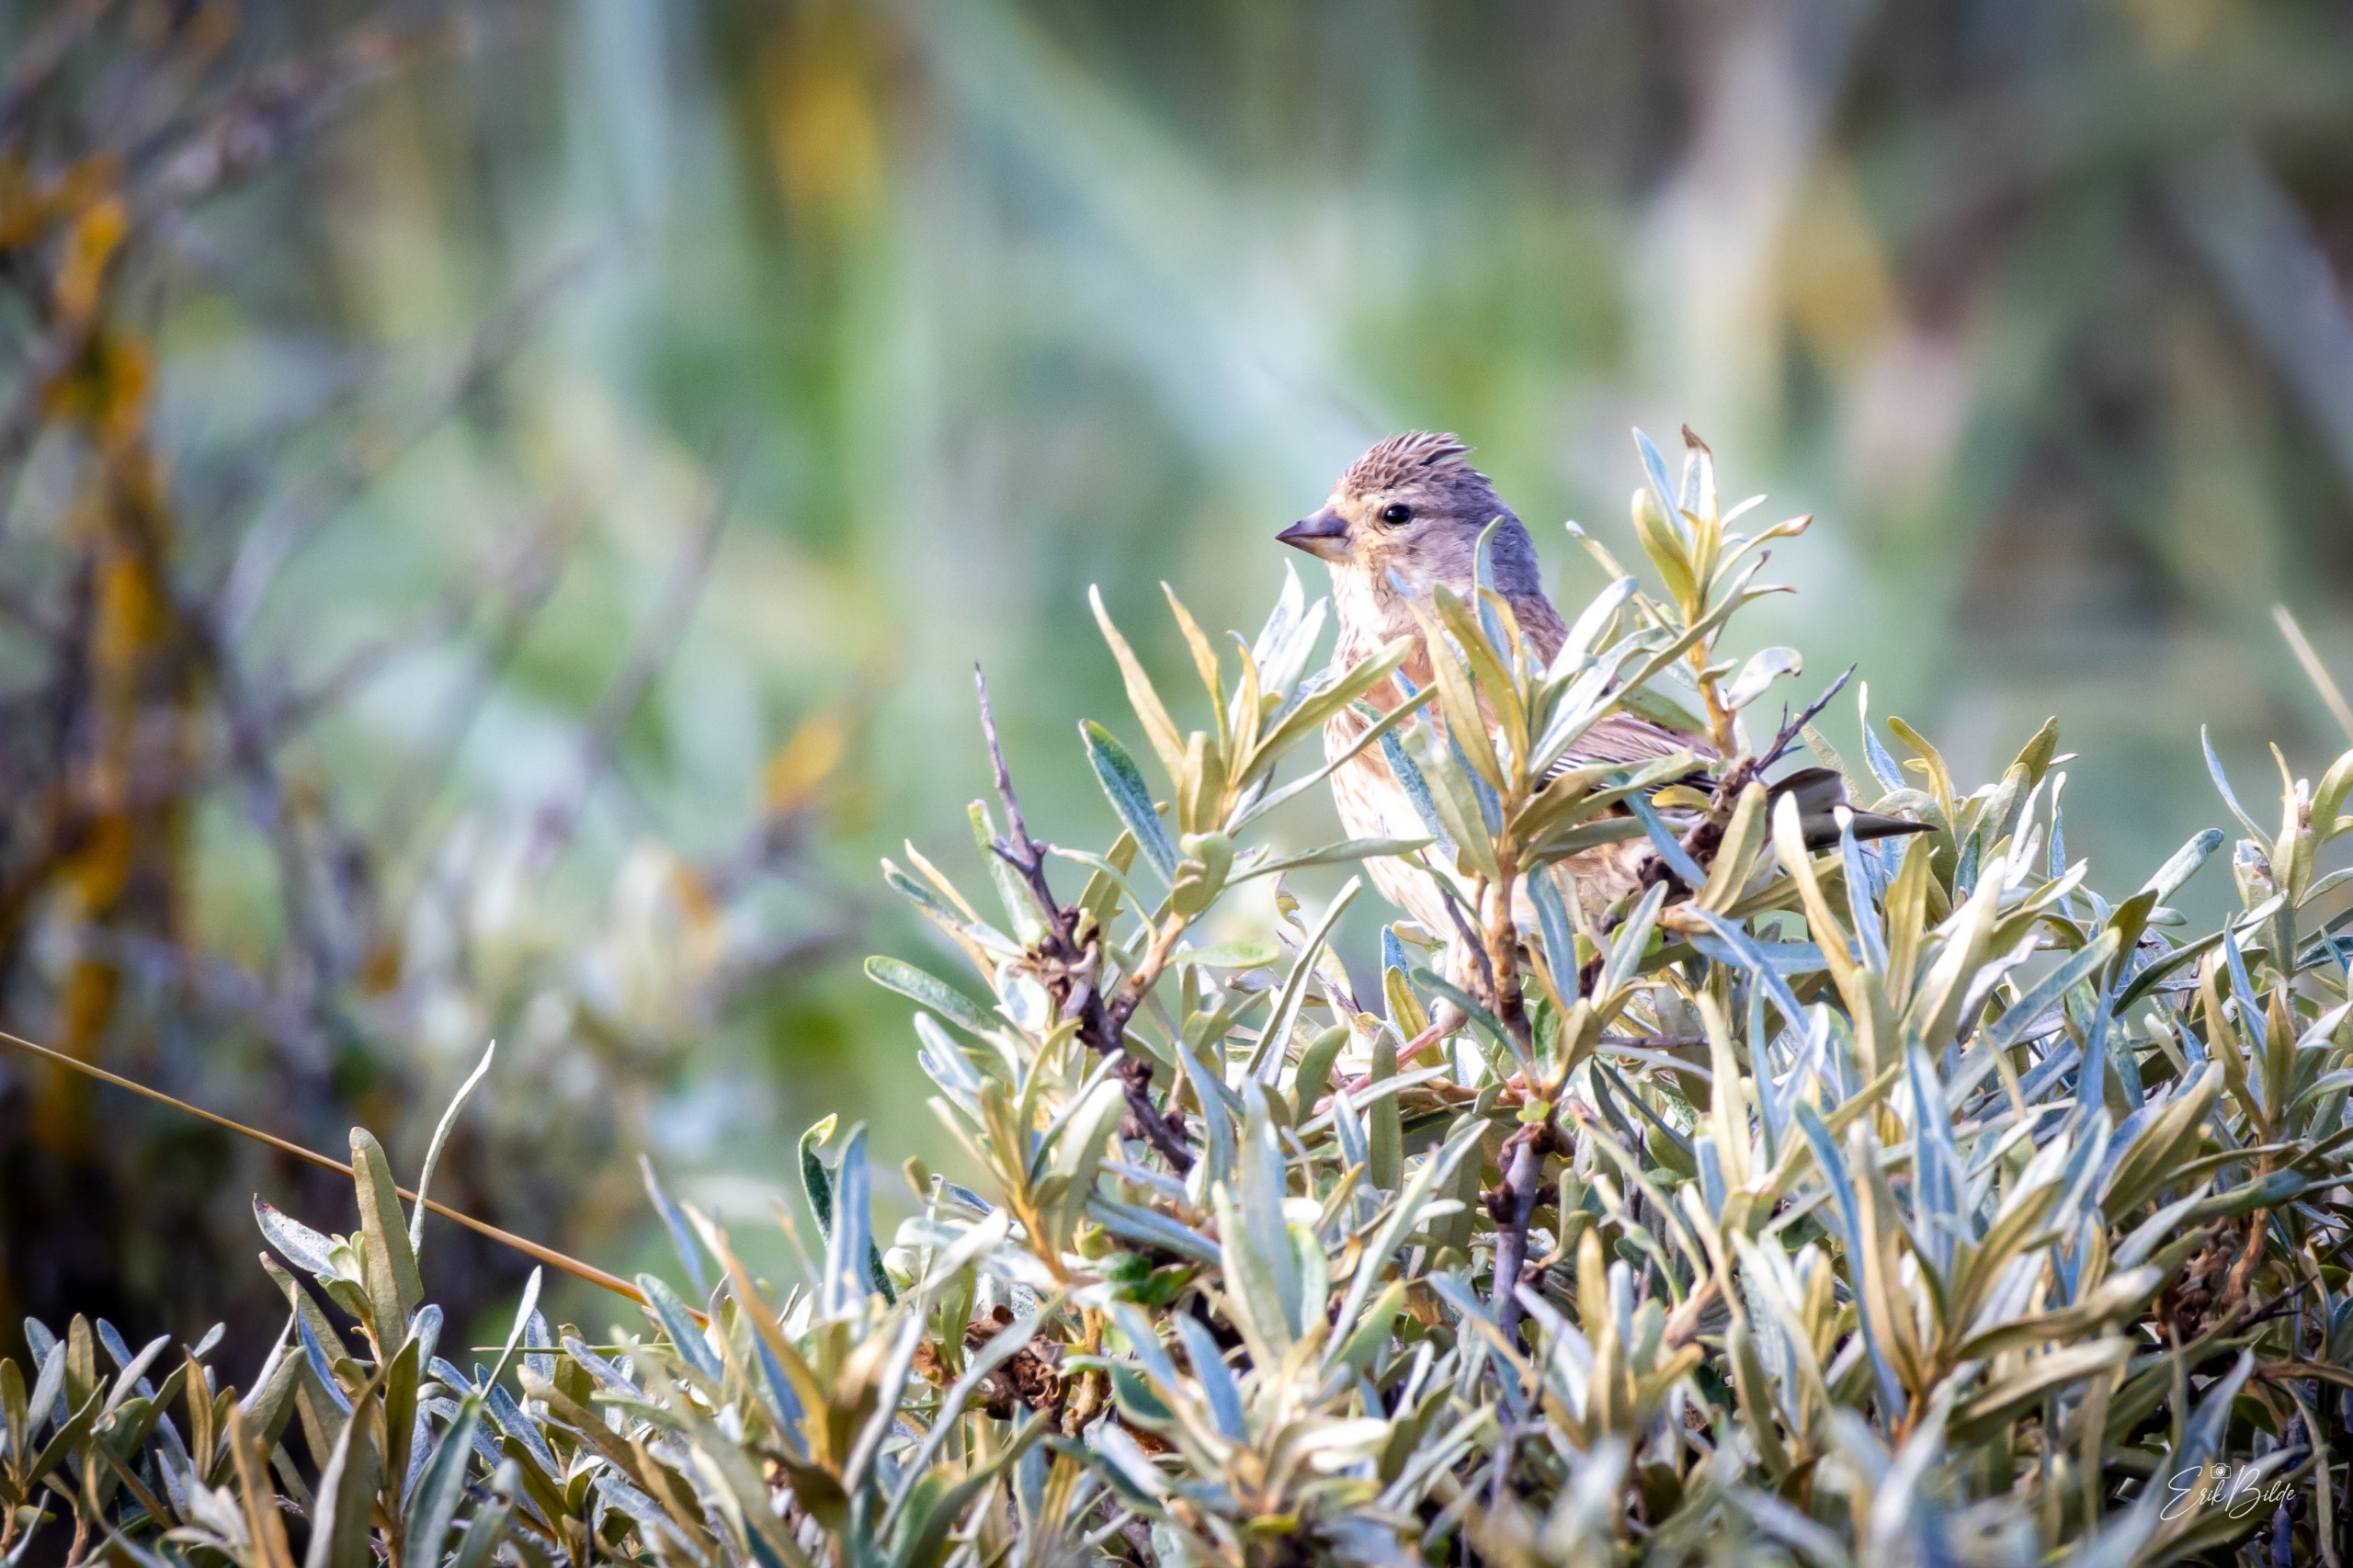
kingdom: Animalia
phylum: Chordata
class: Aves
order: Passeriformes
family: Fringillidae
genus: Linaria
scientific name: Linaria cannabina
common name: Tornirisk
